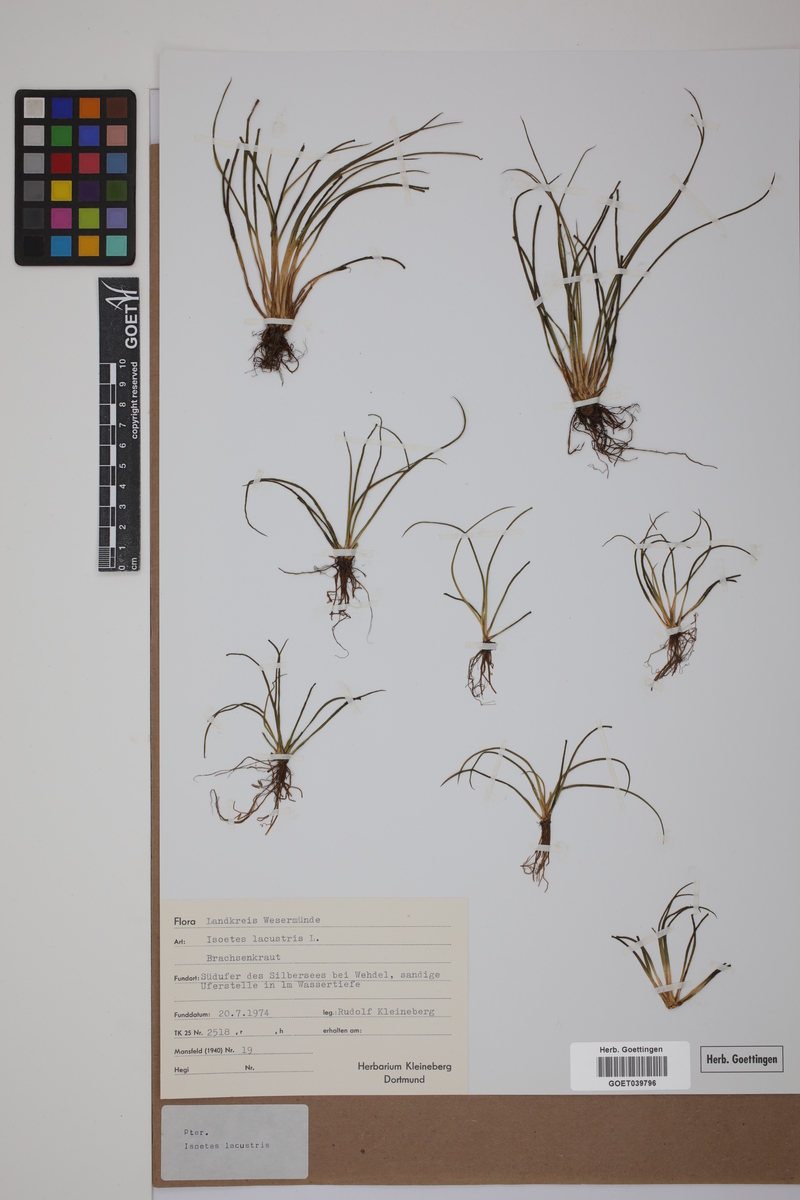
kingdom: Plantae
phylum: Tracheophyta
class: Lycopodiopsida
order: Isoetales
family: Isoetaceae
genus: Isoetes
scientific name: Isoetes lacustris
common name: Common quillwort
